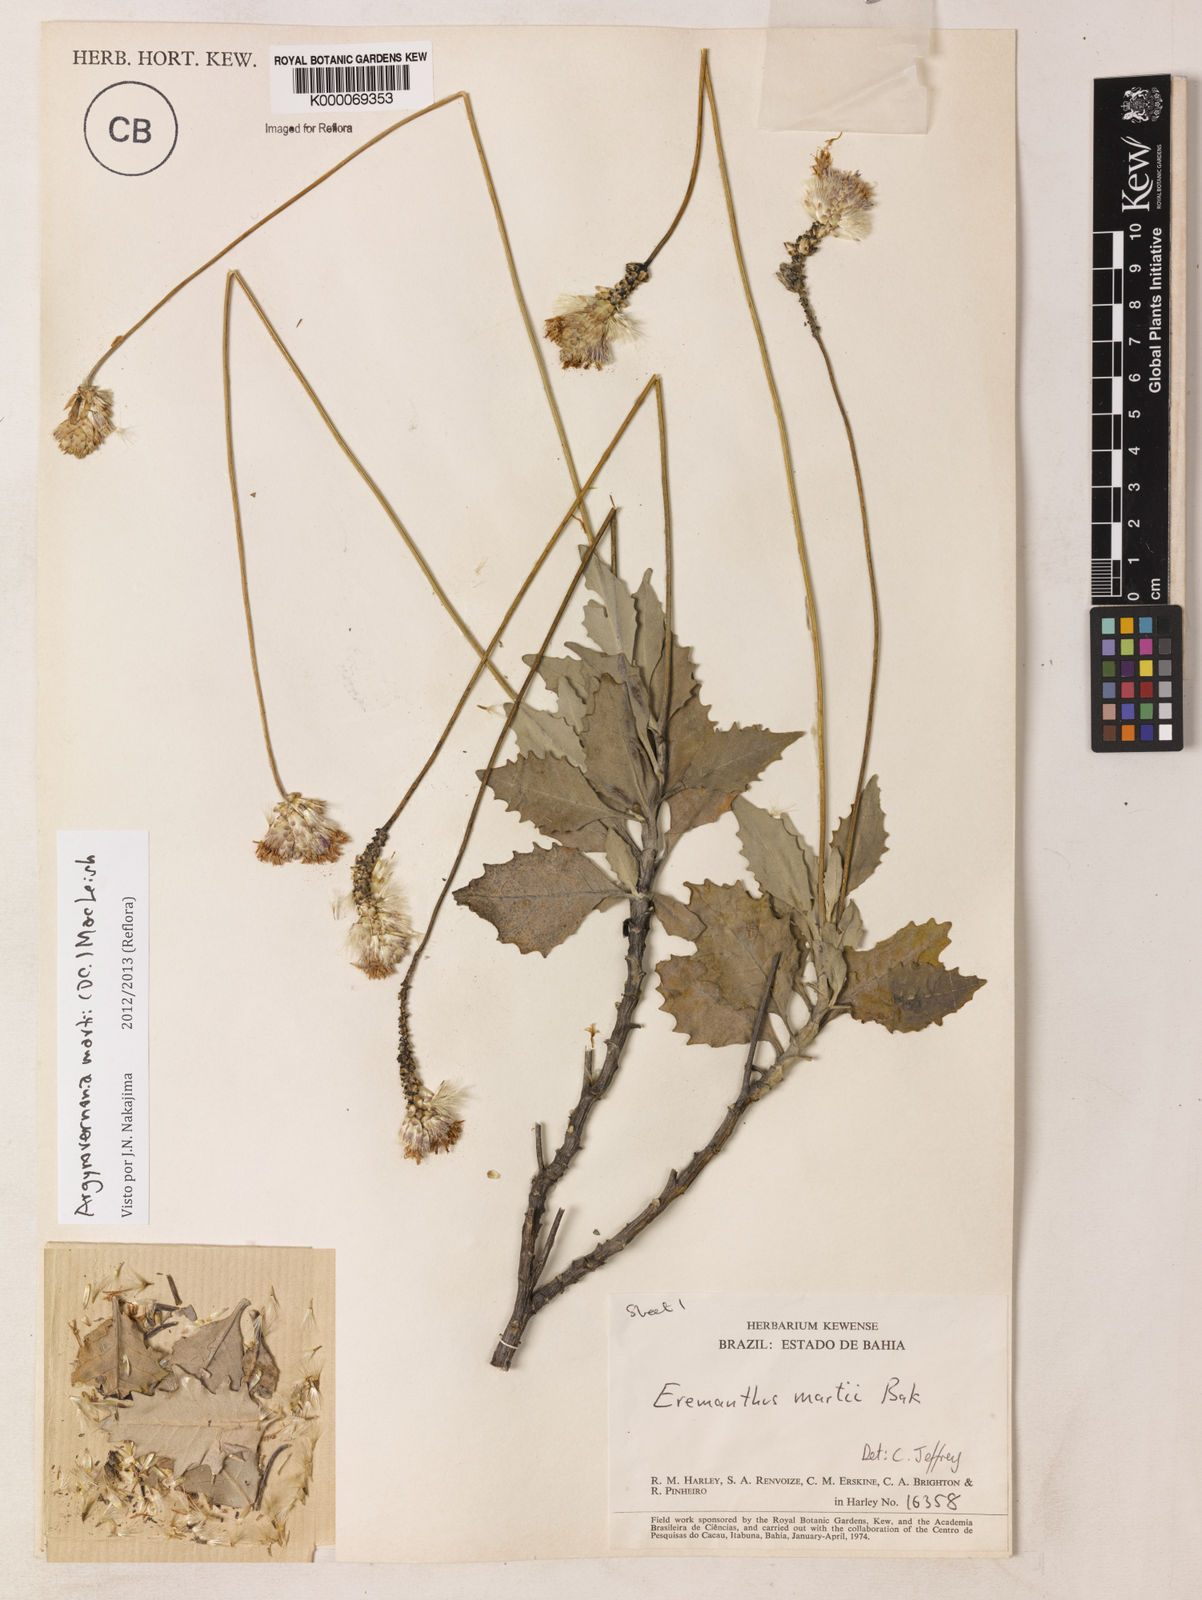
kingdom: Plantae
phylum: Tracheophyta
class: Magnoliopsida
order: Asterales
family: Asteraceae
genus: Chresta
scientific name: Chresta martii
